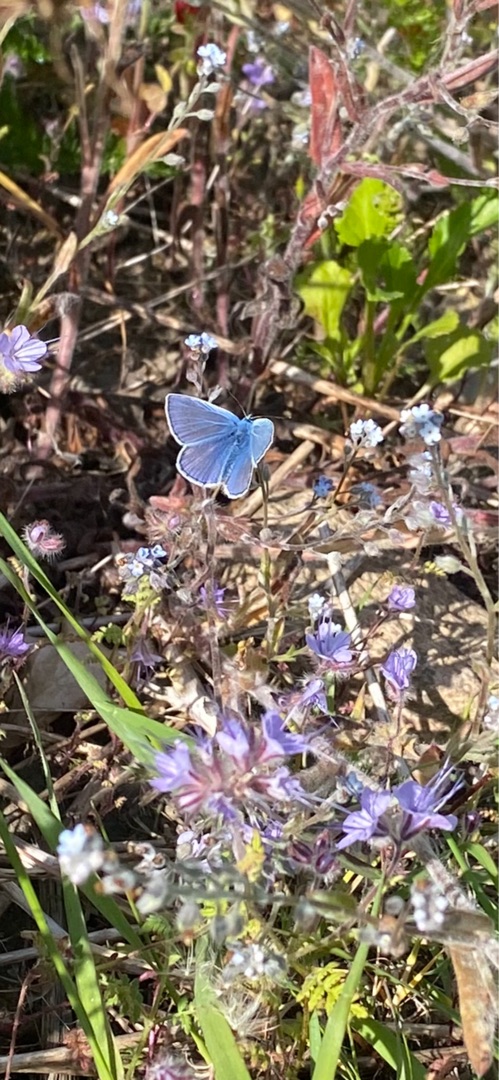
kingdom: Animalia
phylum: Arthropoda
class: Insecta
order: Lepidoptera
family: Lycaenidae
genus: Polyommatus
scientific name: Polyommatus icarus
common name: Almindelig blåfugl
